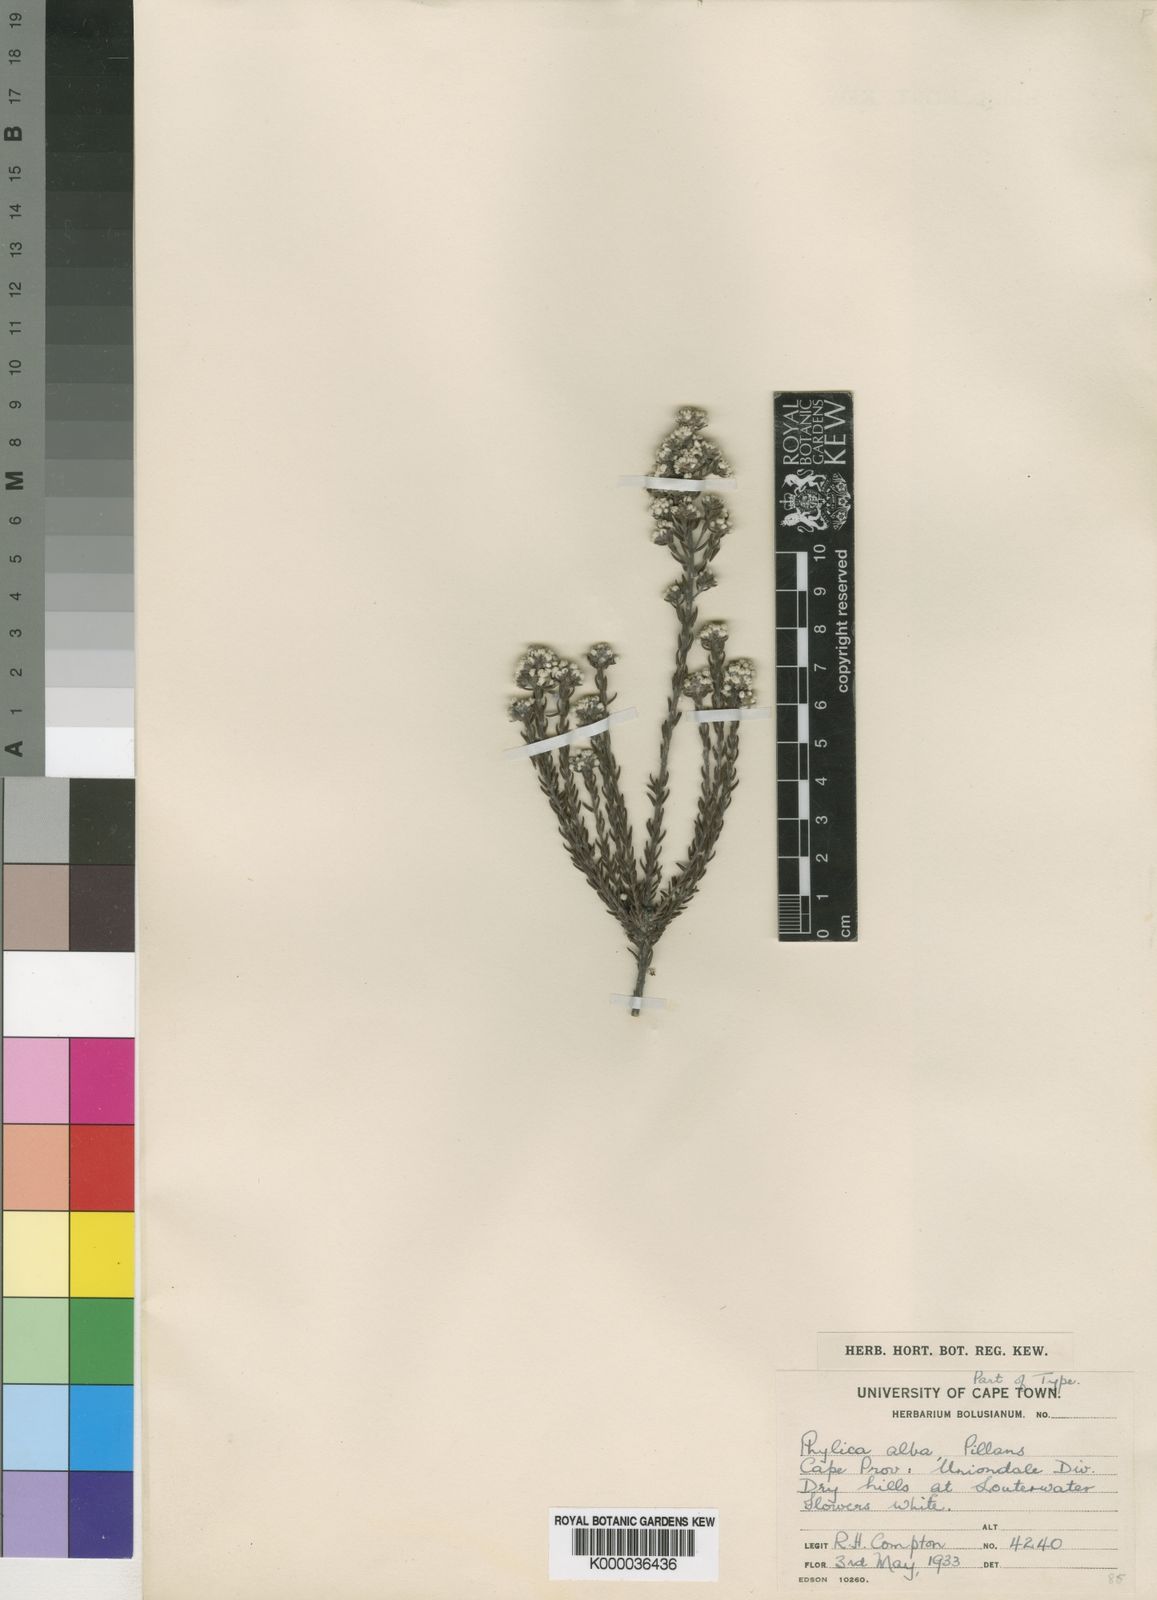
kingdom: Plantae
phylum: Tracheophyta
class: Magnoliopsida
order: Rosales
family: Rhamnaceae
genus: Phylica
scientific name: Phylica alba
